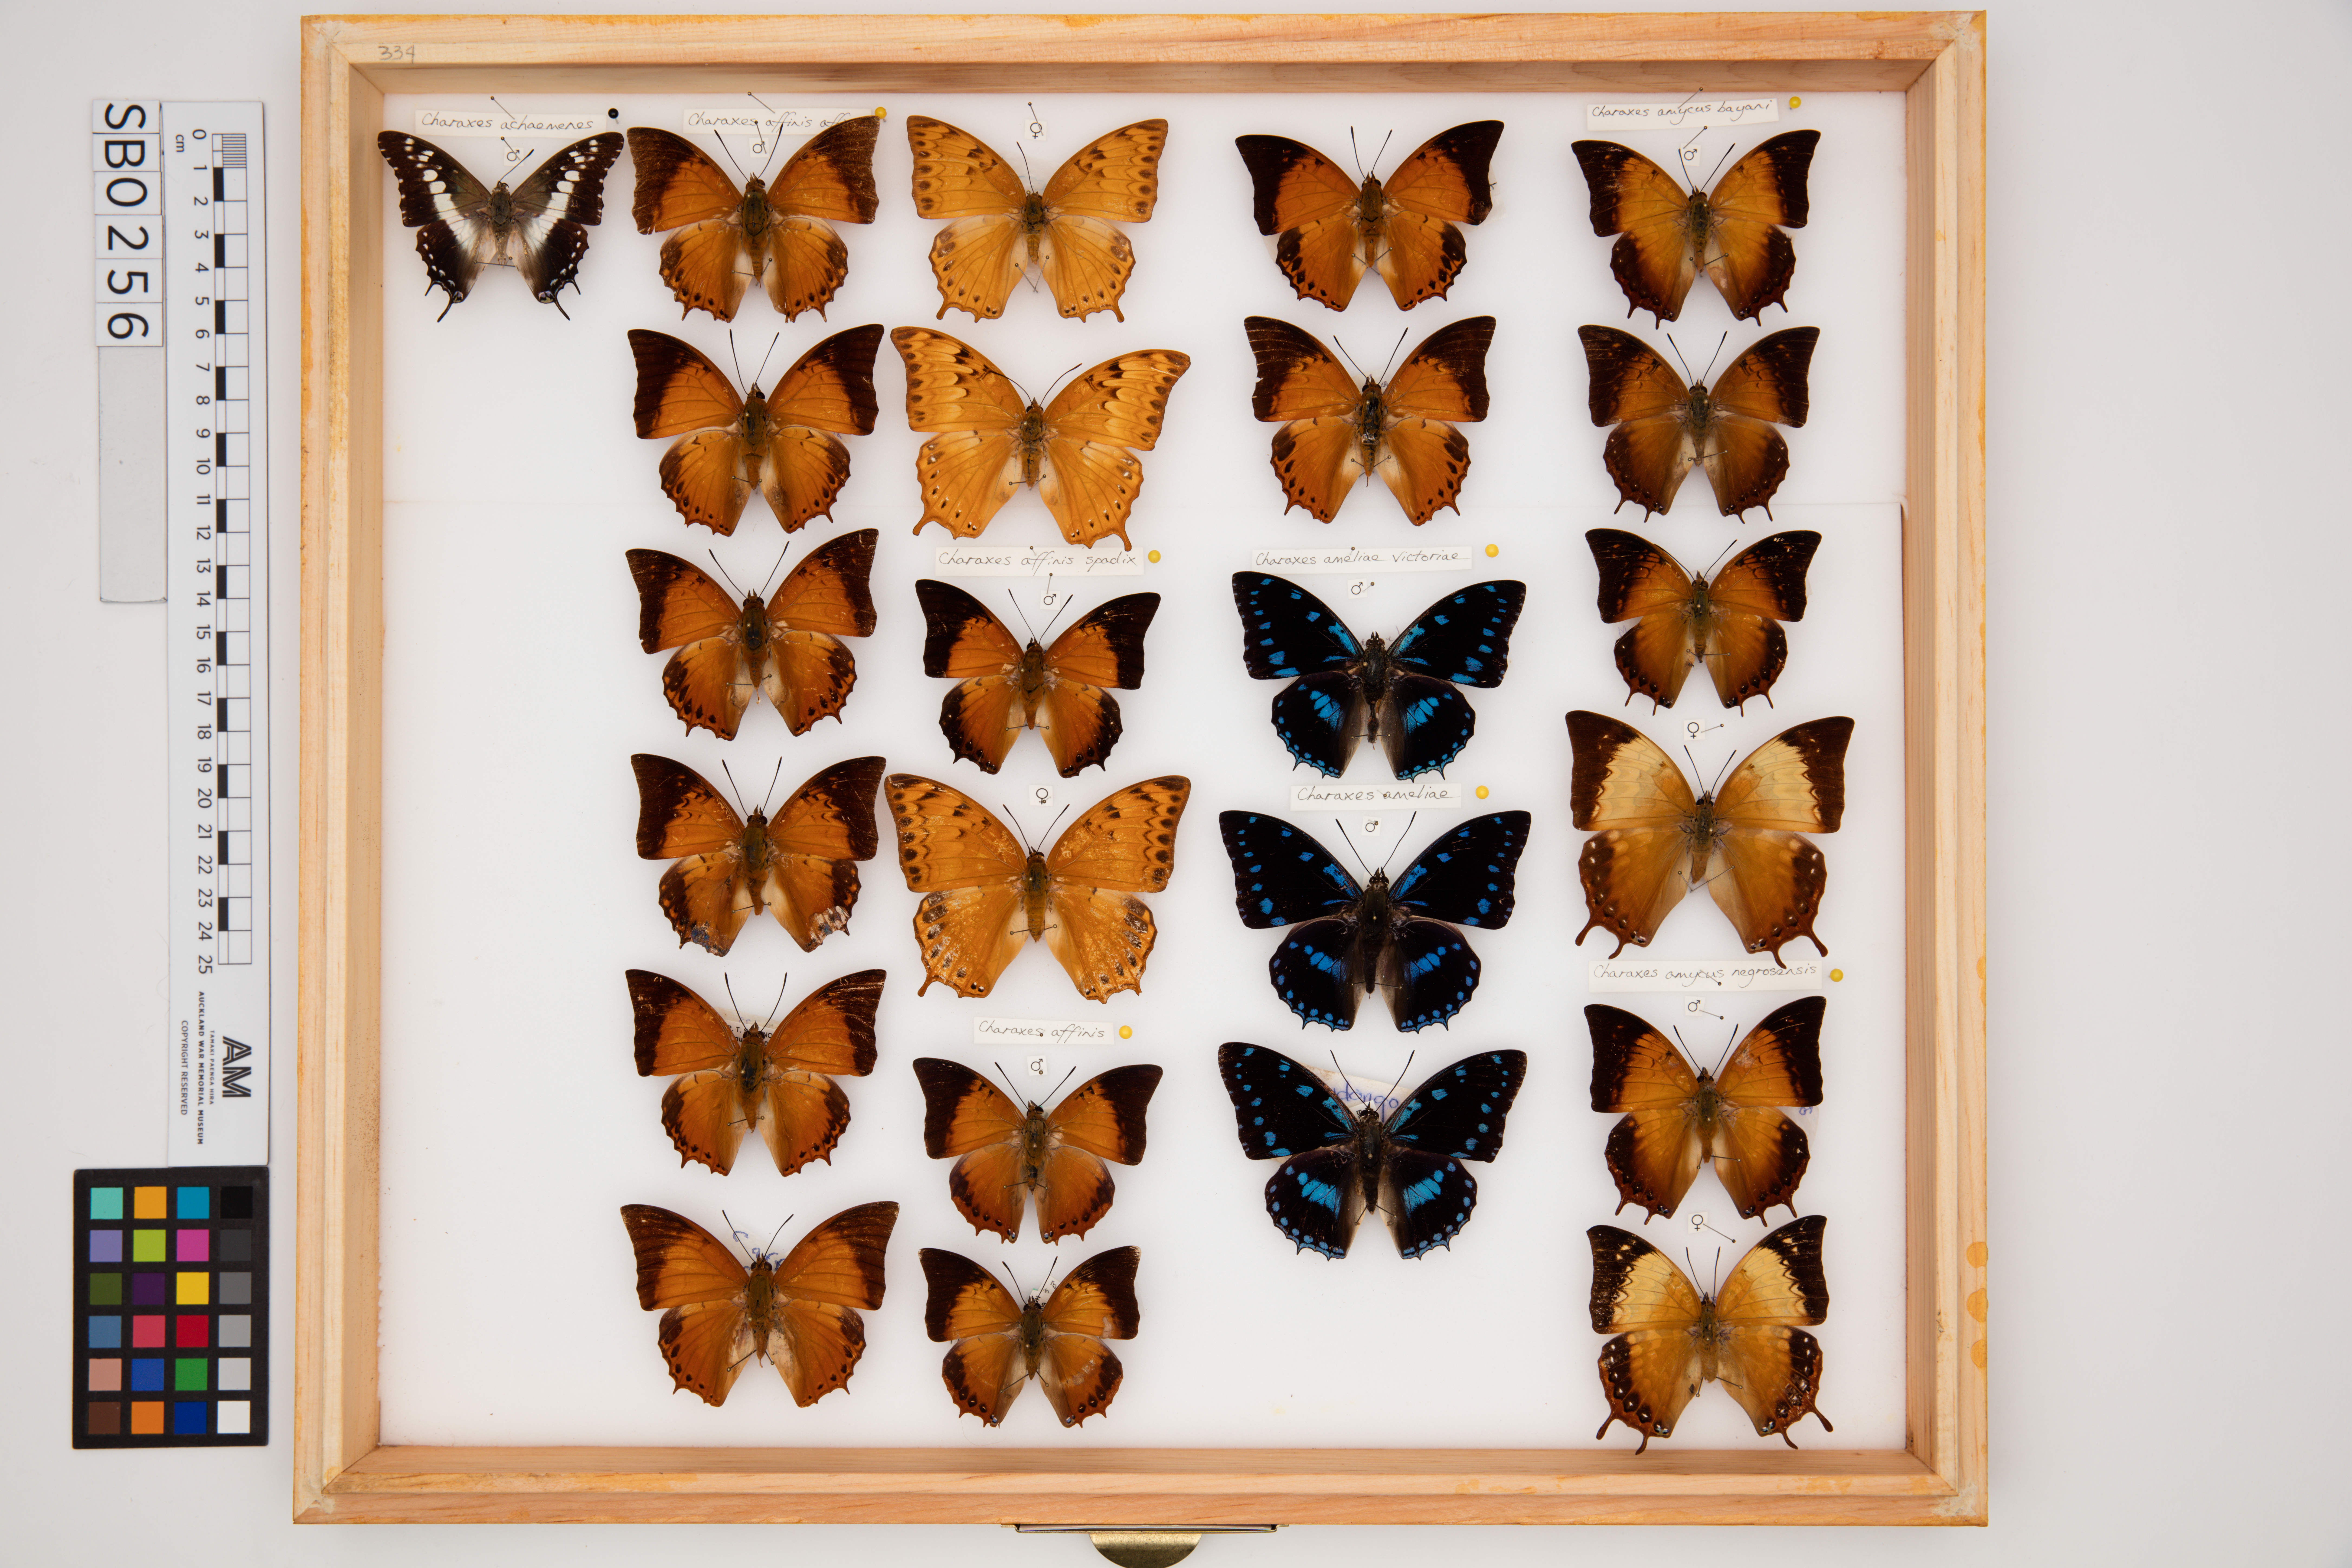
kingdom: Animalia
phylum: Arthropoda
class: Insecta
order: Lepidoptera
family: Nymphalidae
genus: Charaxes
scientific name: Charaxes affinis
